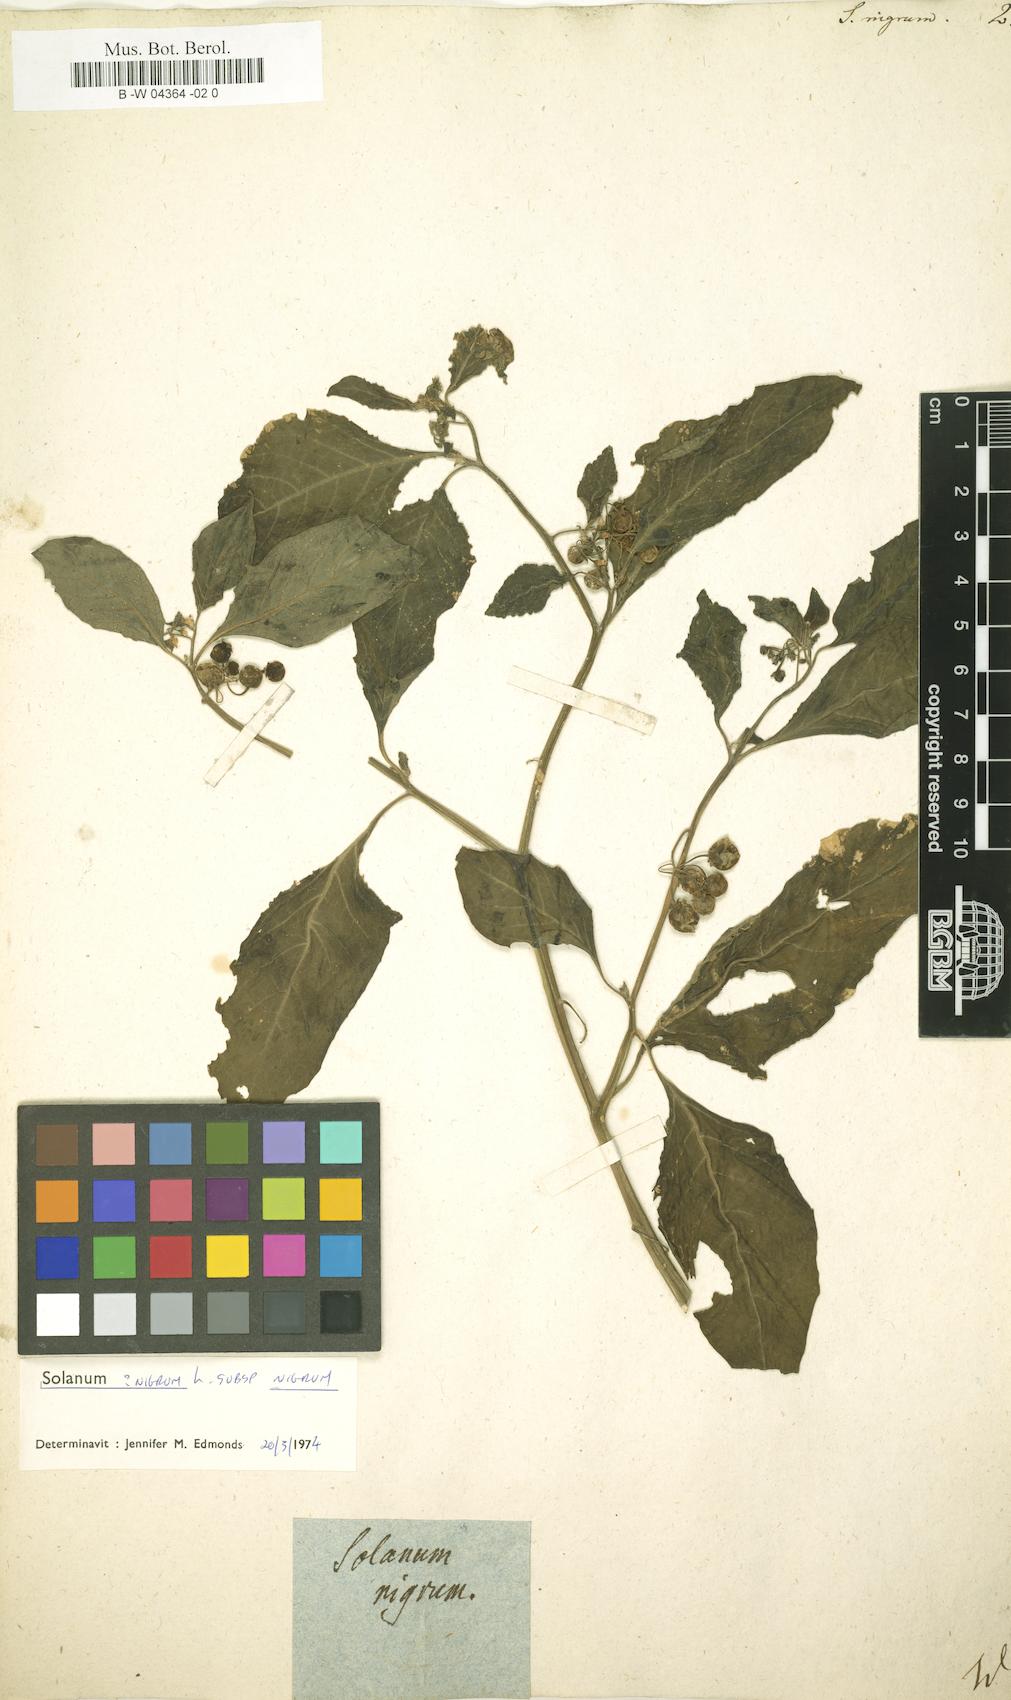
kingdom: Plantae
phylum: Tracheophyta
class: Magnoliopsida
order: Solanales
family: Solanaceae
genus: Solanum
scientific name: Solanum nigrum
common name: Black nightshade
